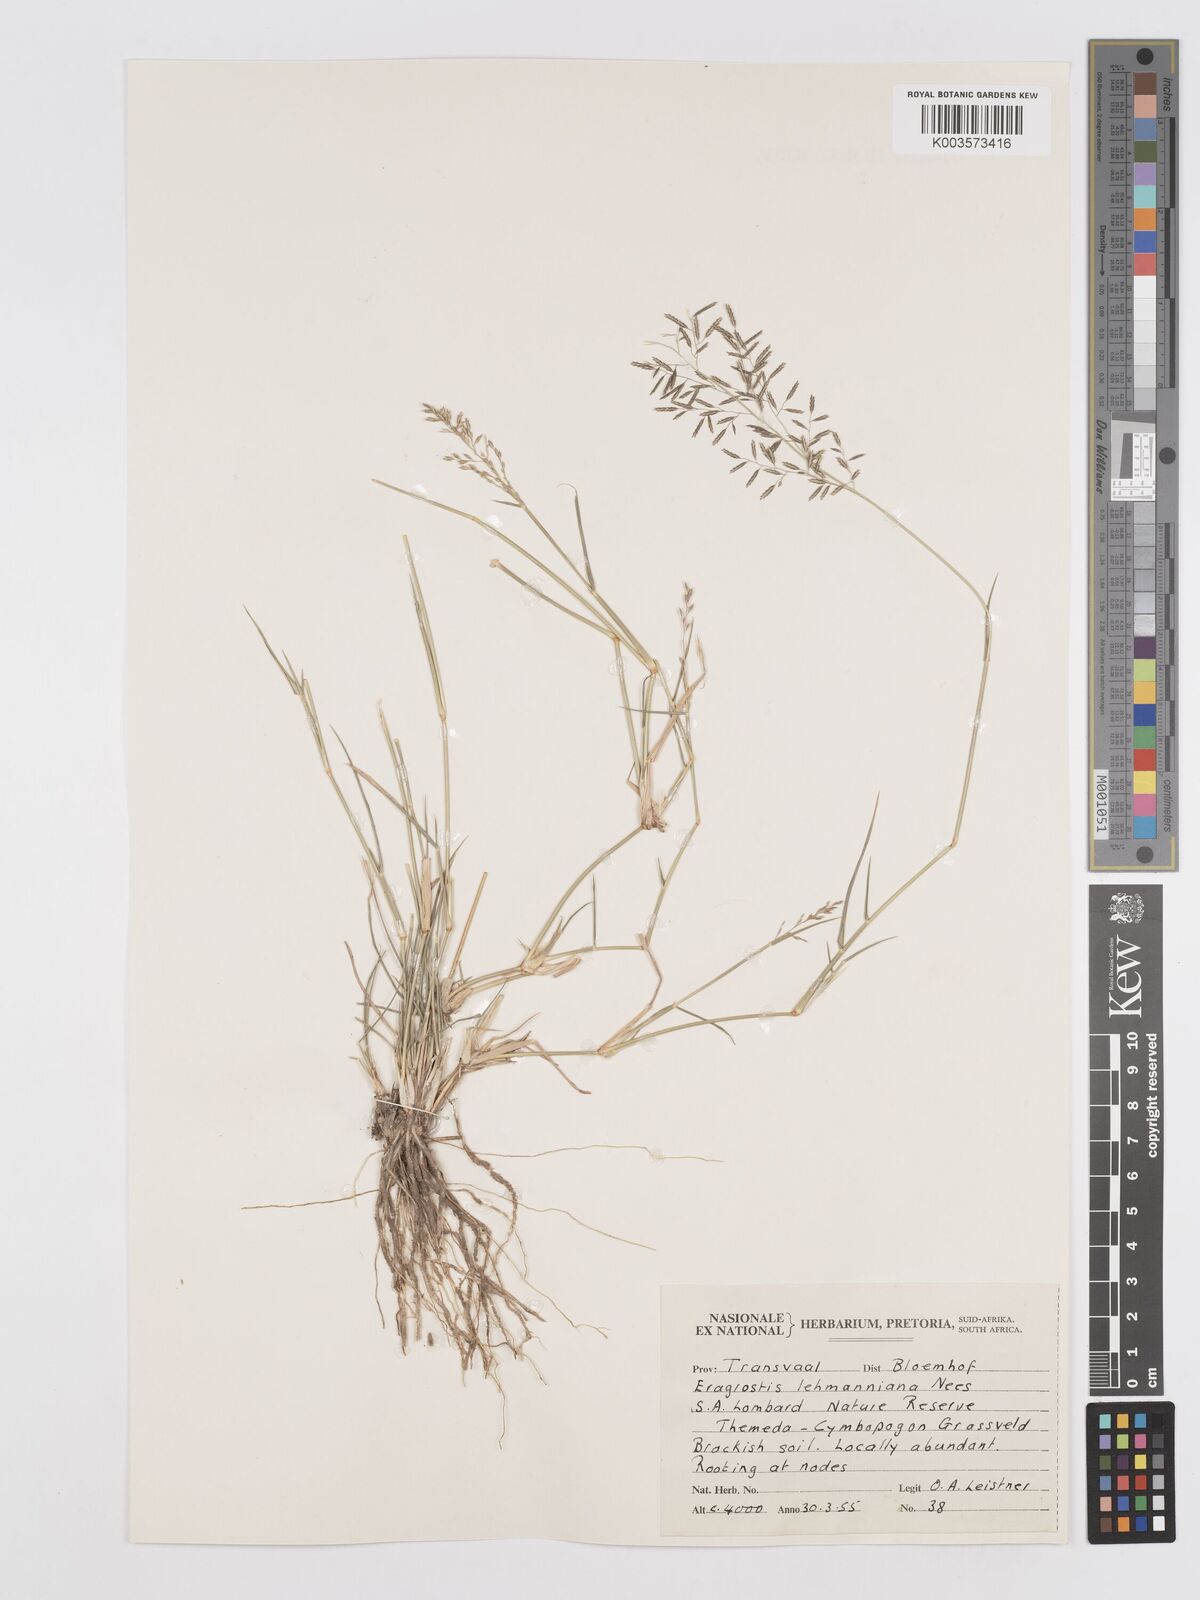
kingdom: Plantae
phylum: Tracheophyta
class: Liliopsida
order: Poales
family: Poaceae
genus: Eragrostis
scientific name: Eragrostis lehmanniana
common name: Lehmann lovegrass
